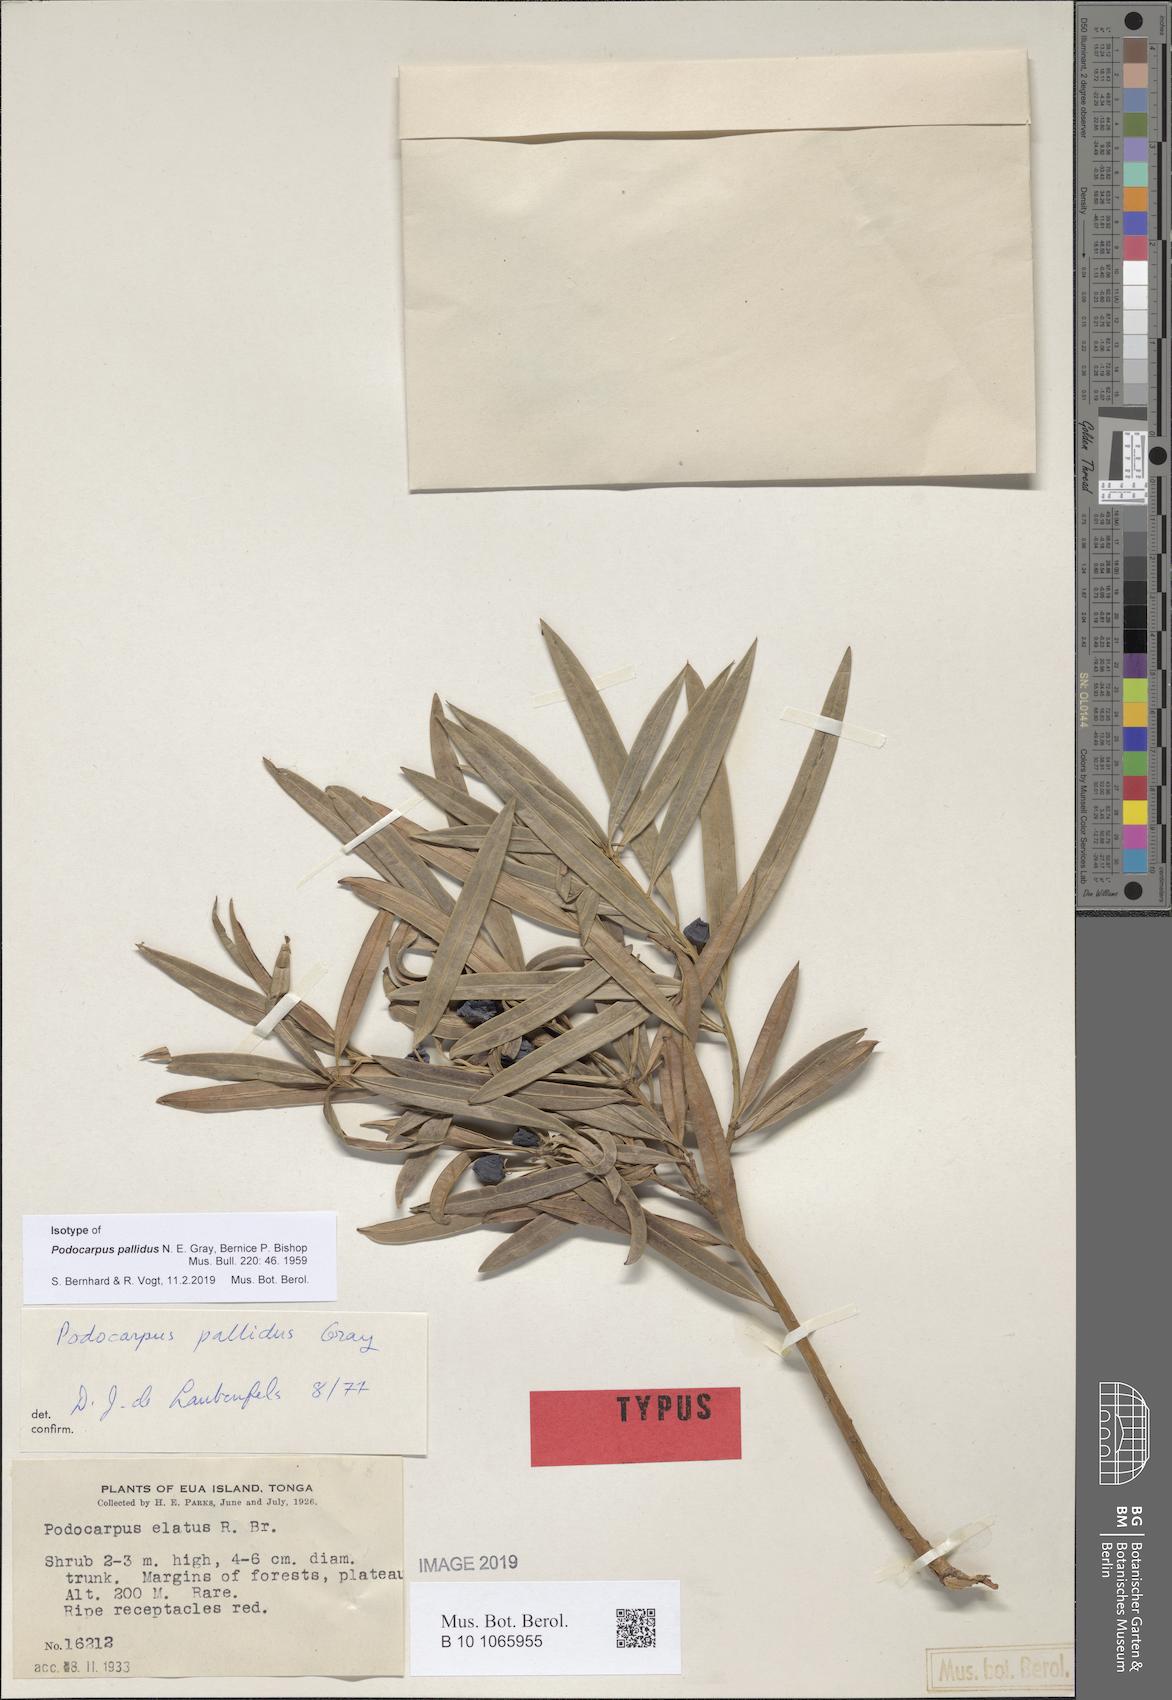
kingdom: Plantae
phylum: Tracheophyta
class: Pinopsida
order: Pinales
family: Podocarpaceae
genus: Podocarpus
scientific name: Podocarpus pallidus
